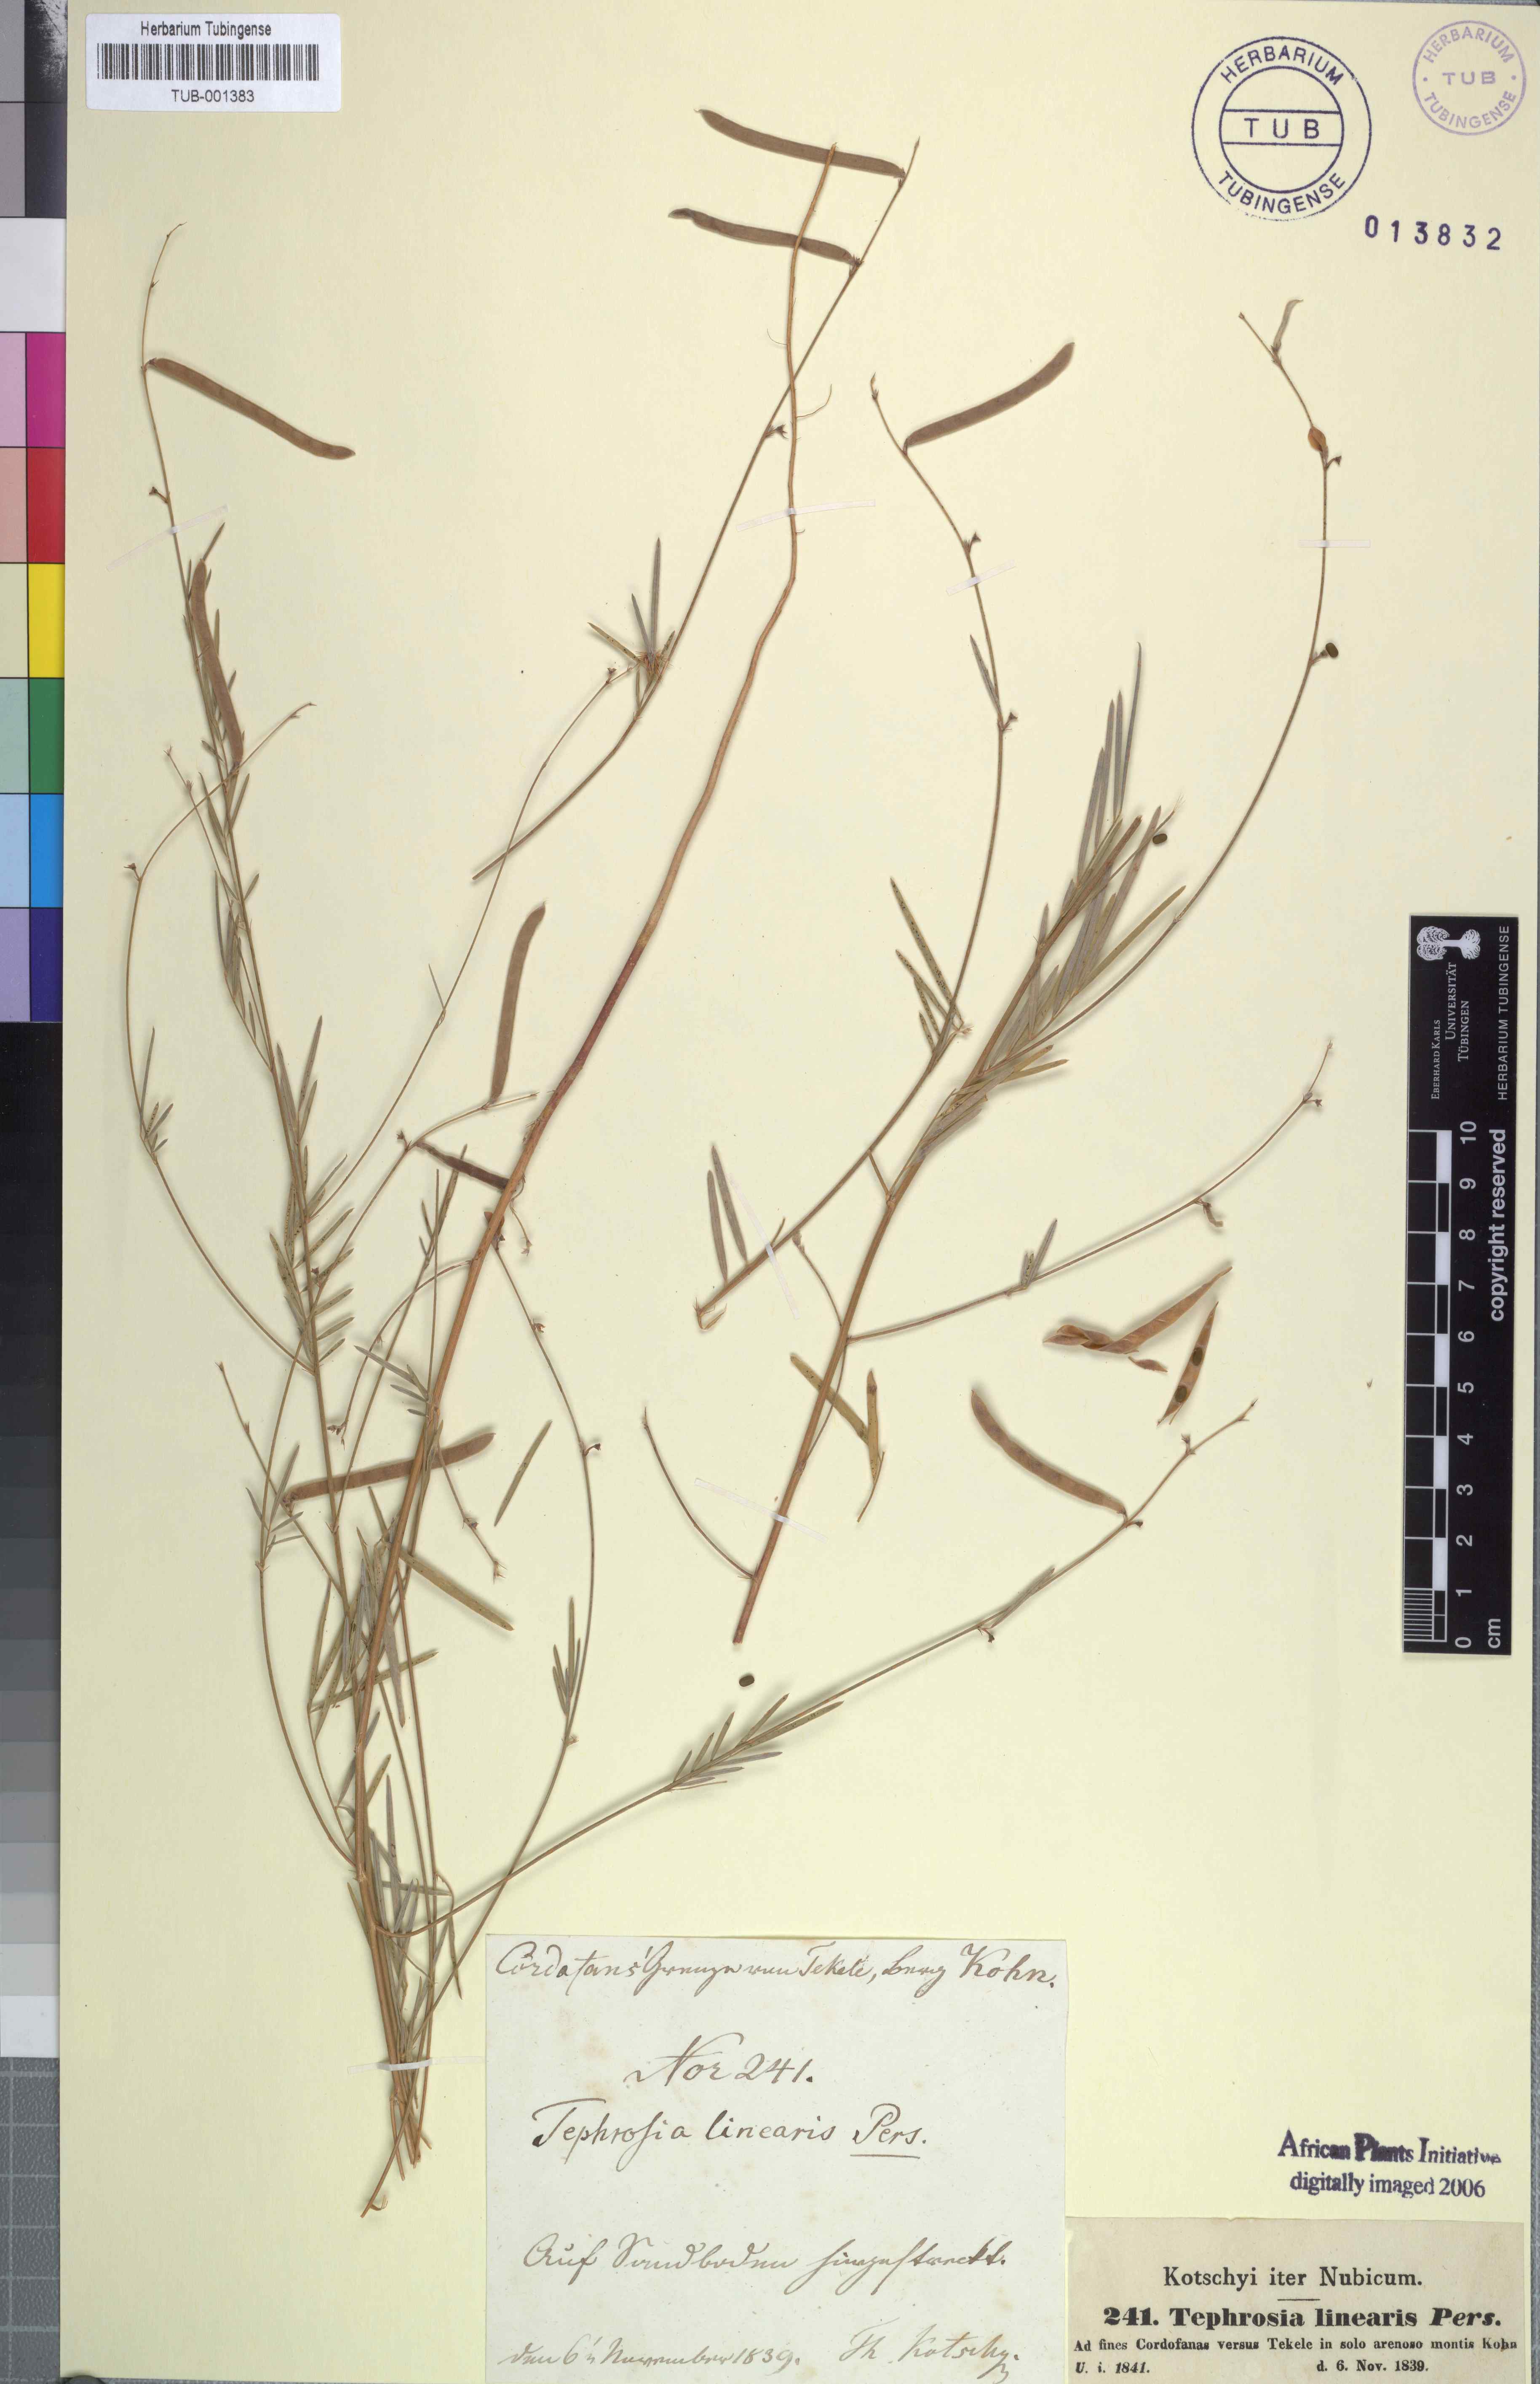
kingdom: Plantae
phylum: Tracheophyta
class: Magnoliopsida
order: Fabales
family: Fabaceae
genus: Tephrosia
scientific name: Tephrosia linearis
